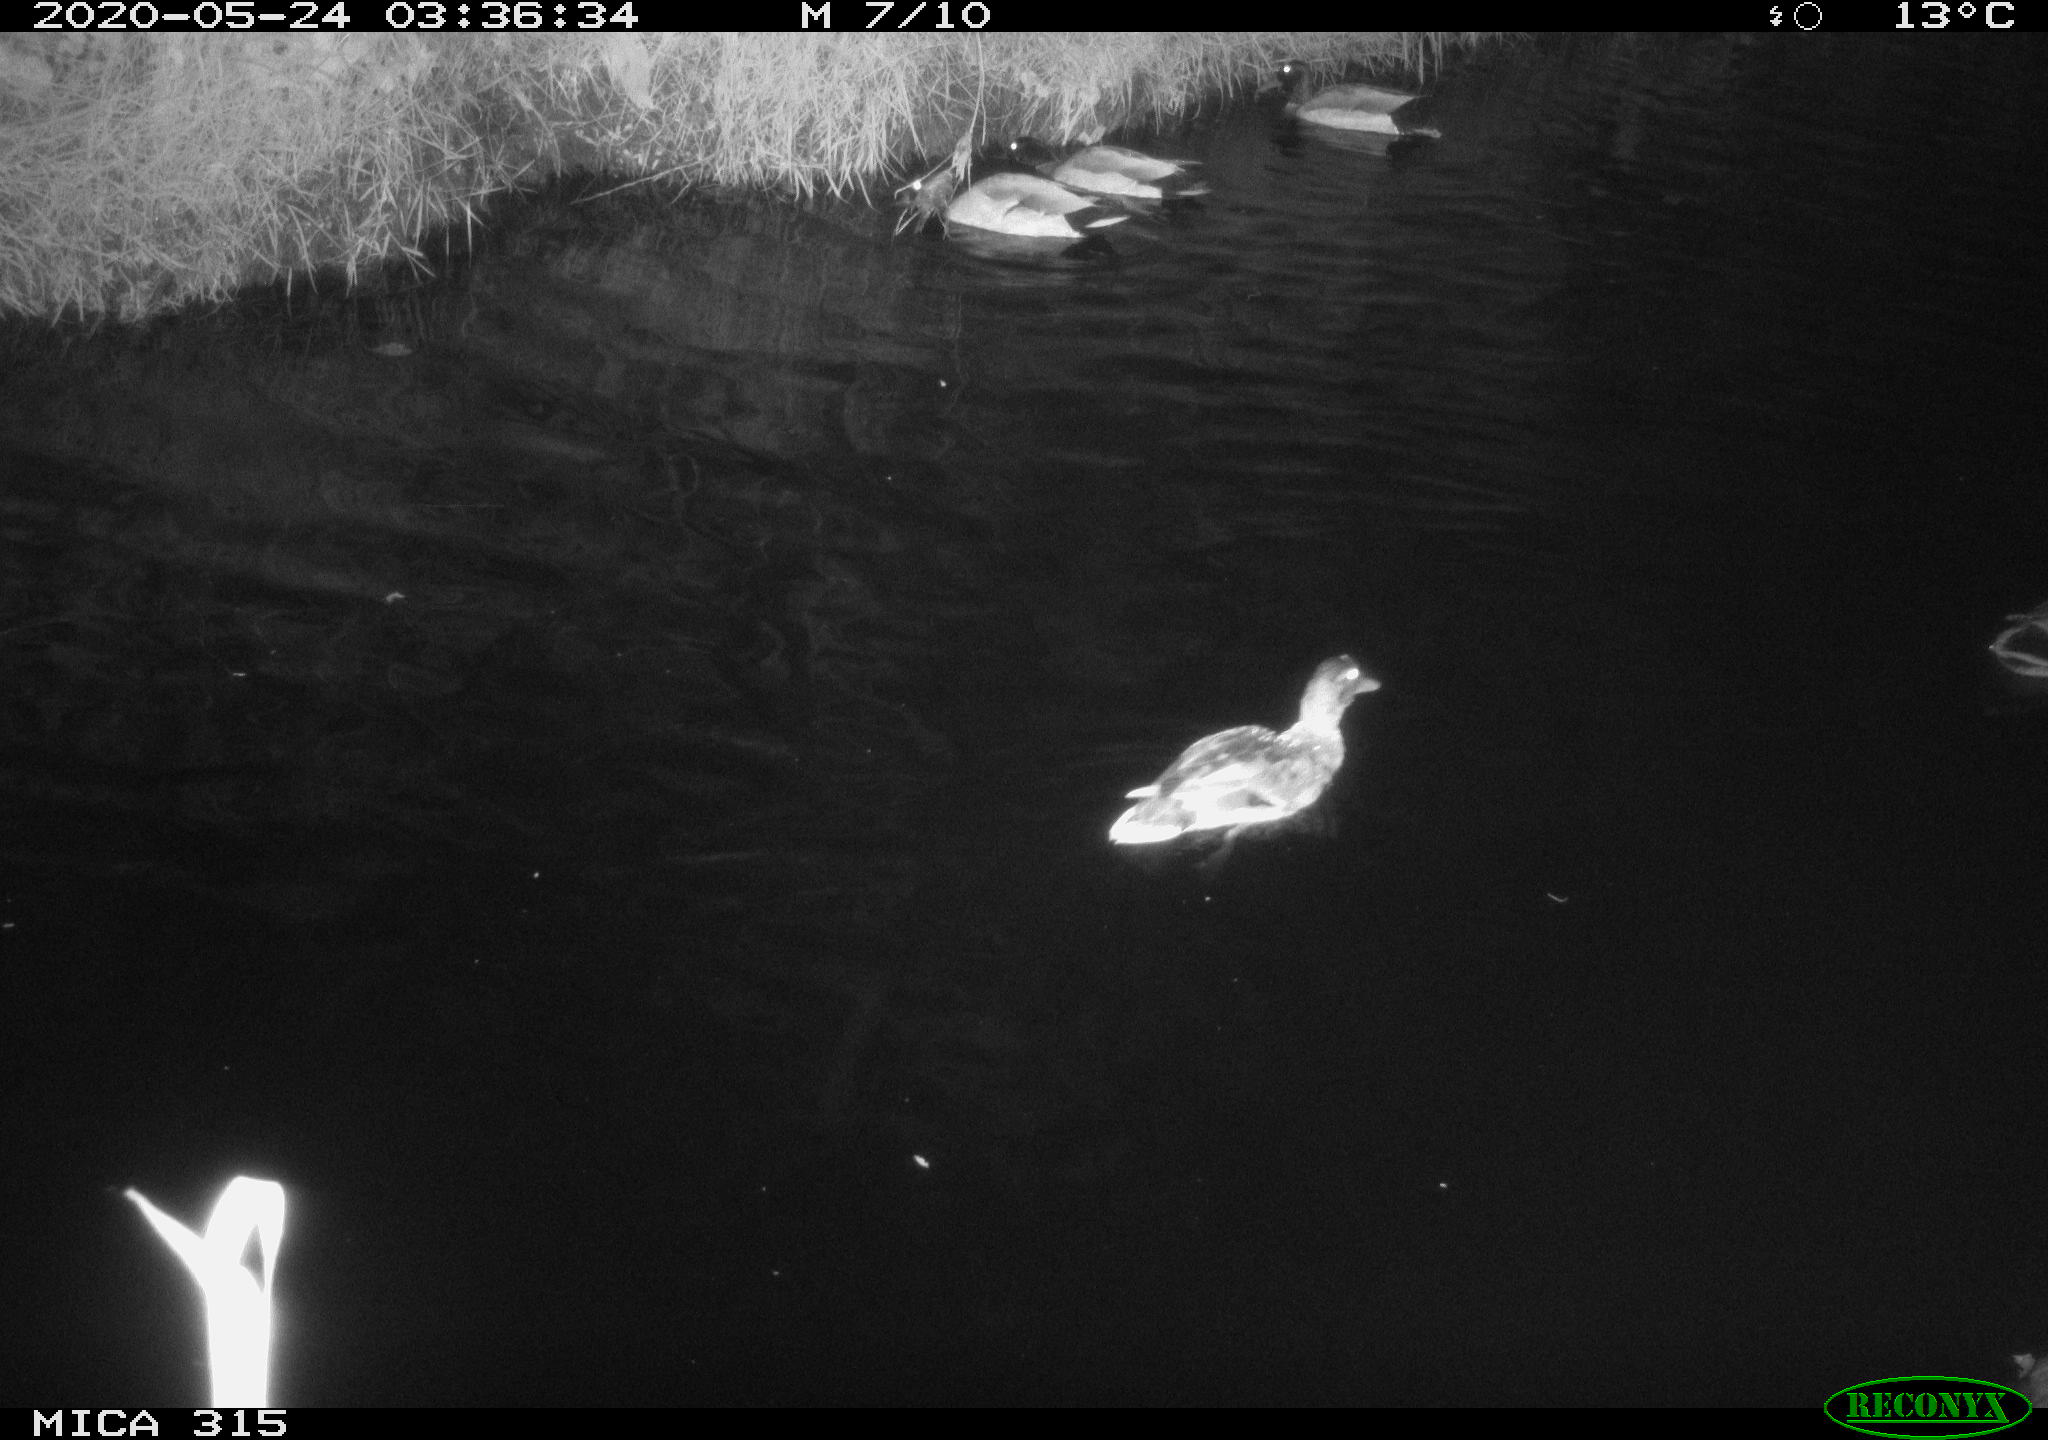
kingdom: Animalia
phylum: Chordata
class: Aves
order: Anseriformes
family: Anatidae
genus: Anas
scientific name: Anas platyrhynchos
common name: Mallard
